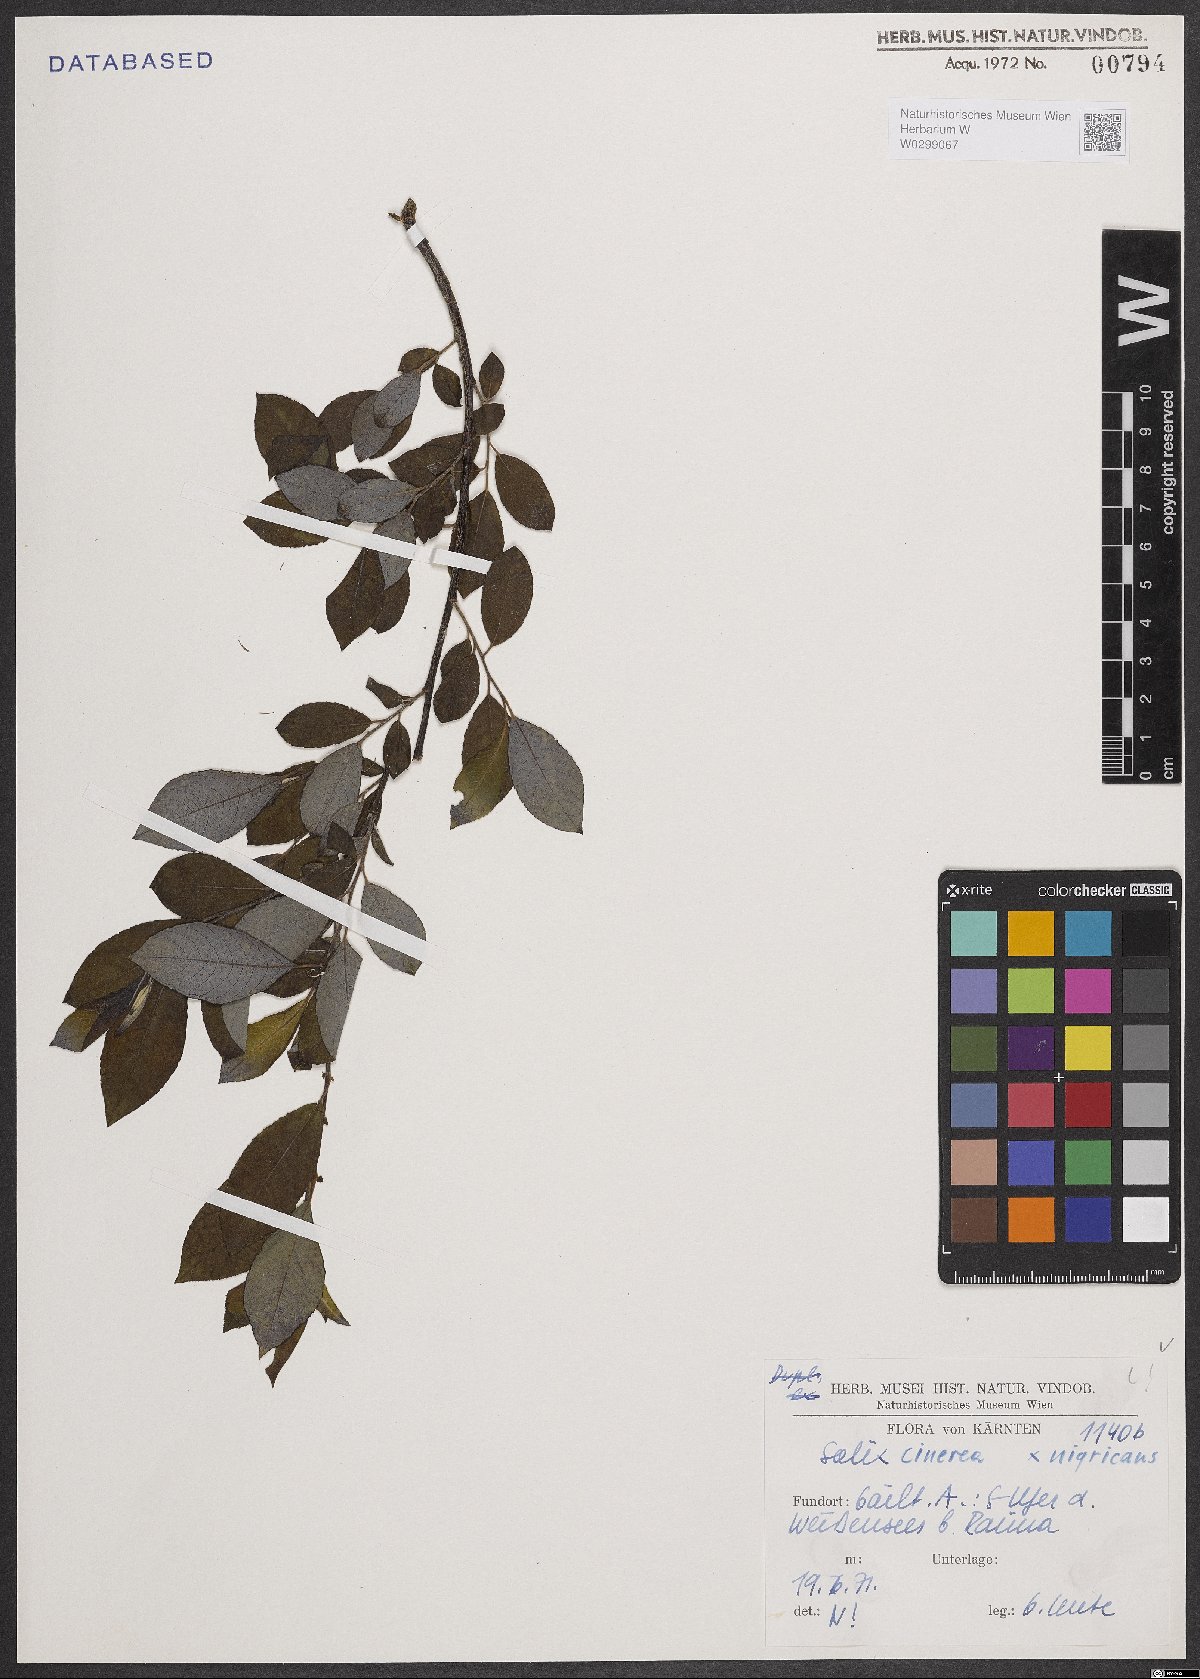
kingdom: Plantae
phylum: Tracheophyta
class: Magnoliopsida
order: Malpighiales
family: Salicaceae
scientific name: Salicaceae
